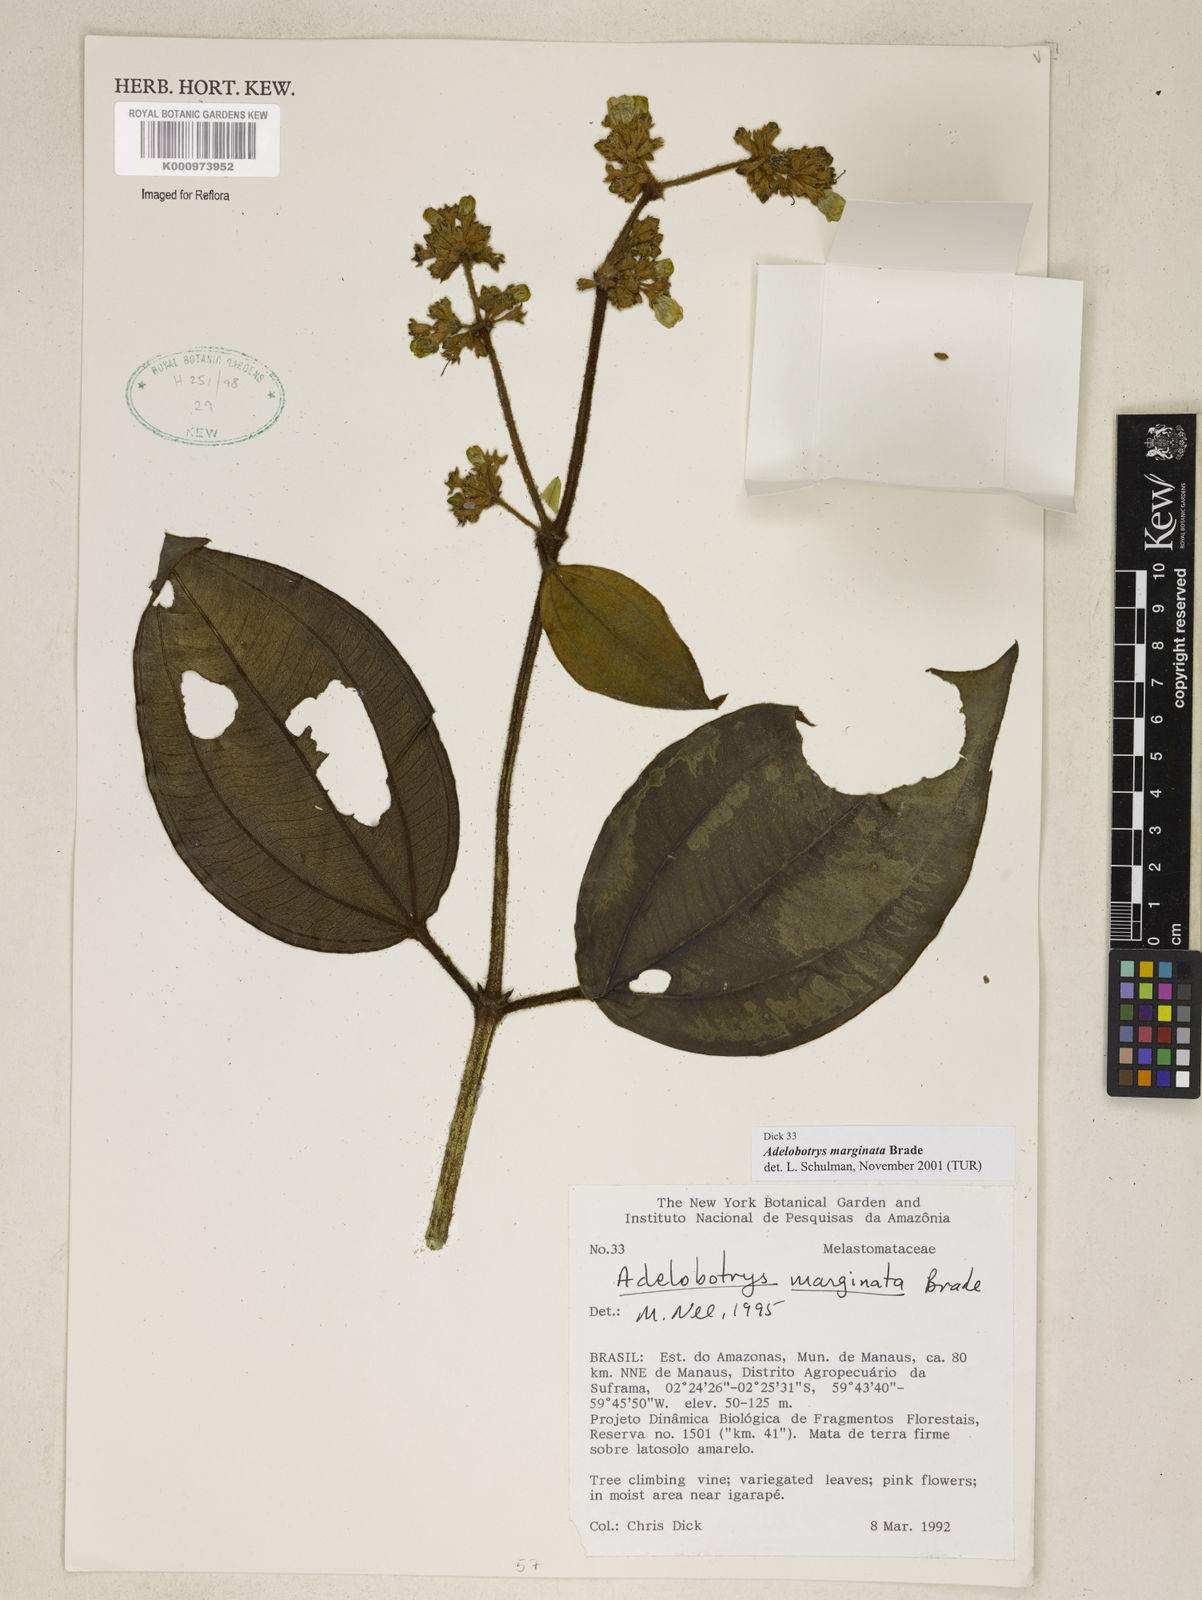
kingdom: Plantae
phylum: Tracheophyta
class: Magnoliopsida
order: Myrtales
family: Melastomataceae
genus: Adelobotrys
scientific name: Adelobotrys marginatus
